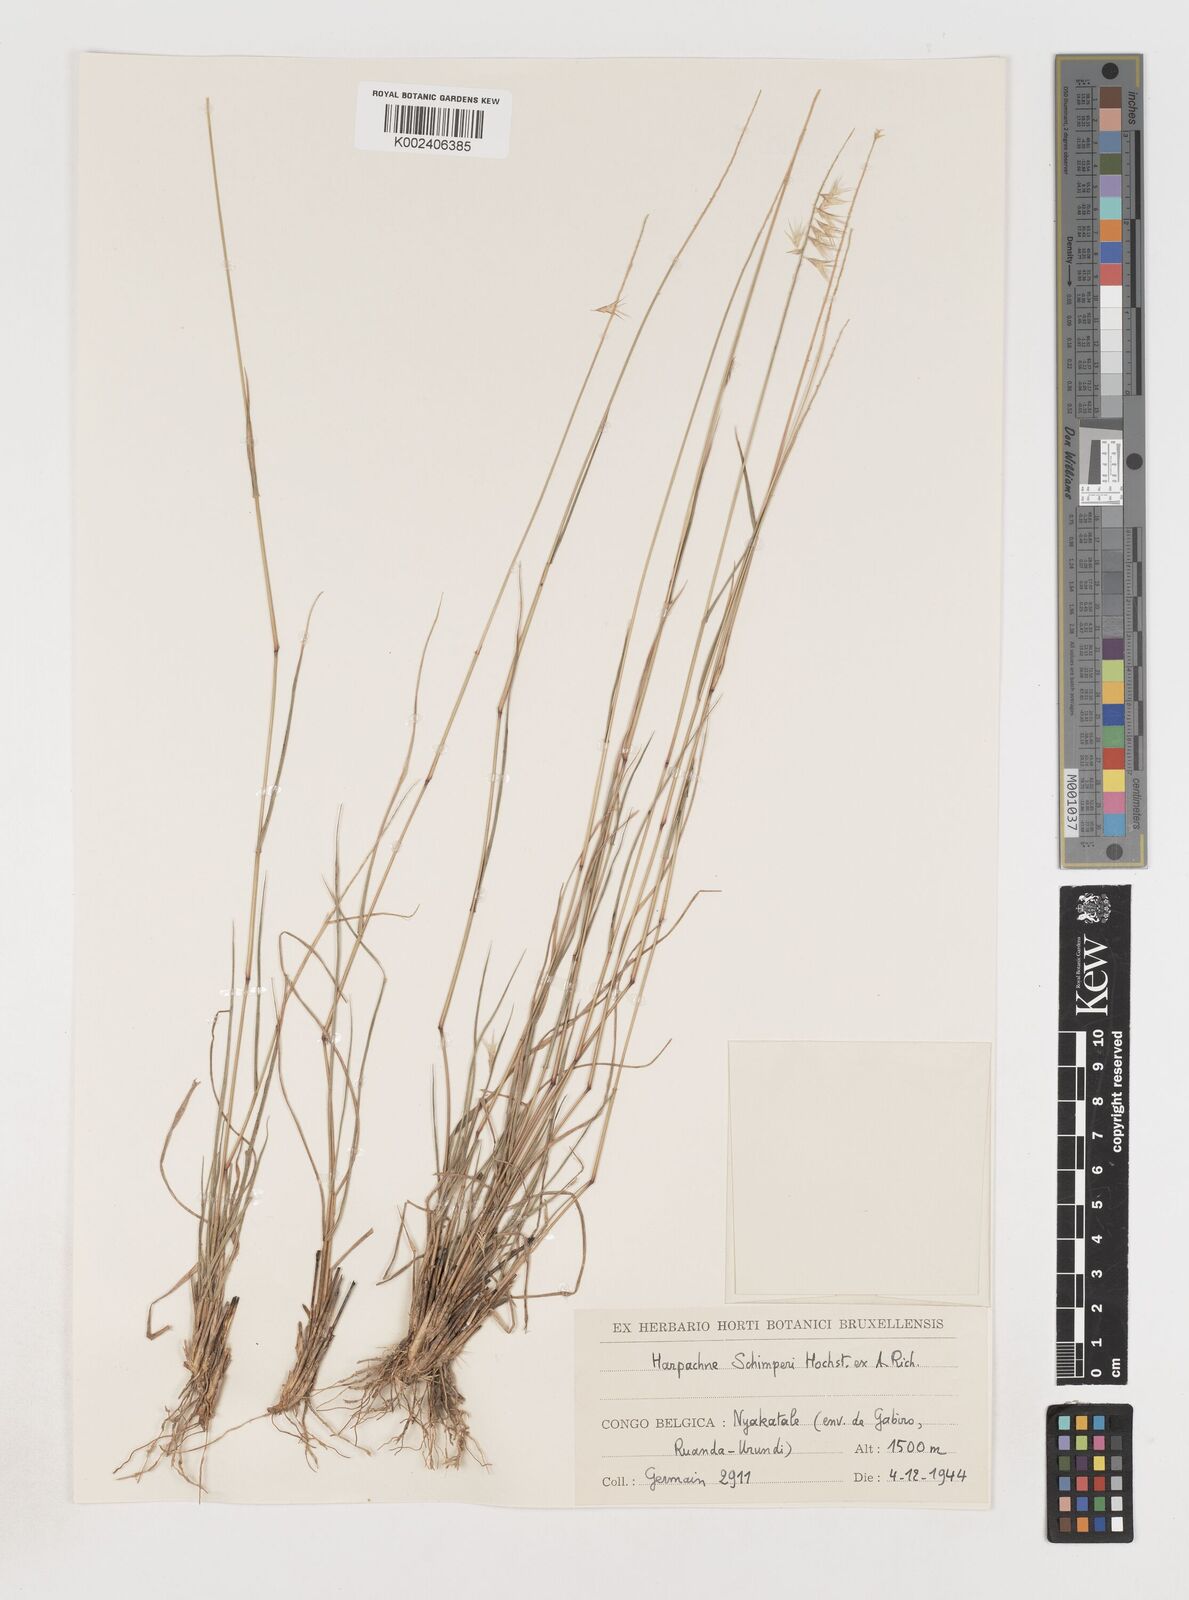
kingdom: Plantae
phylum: Tracheophyta
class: Liliopsida
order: Poales
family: Poaceae
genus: Harpachne
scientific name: Harpachne schimperi
